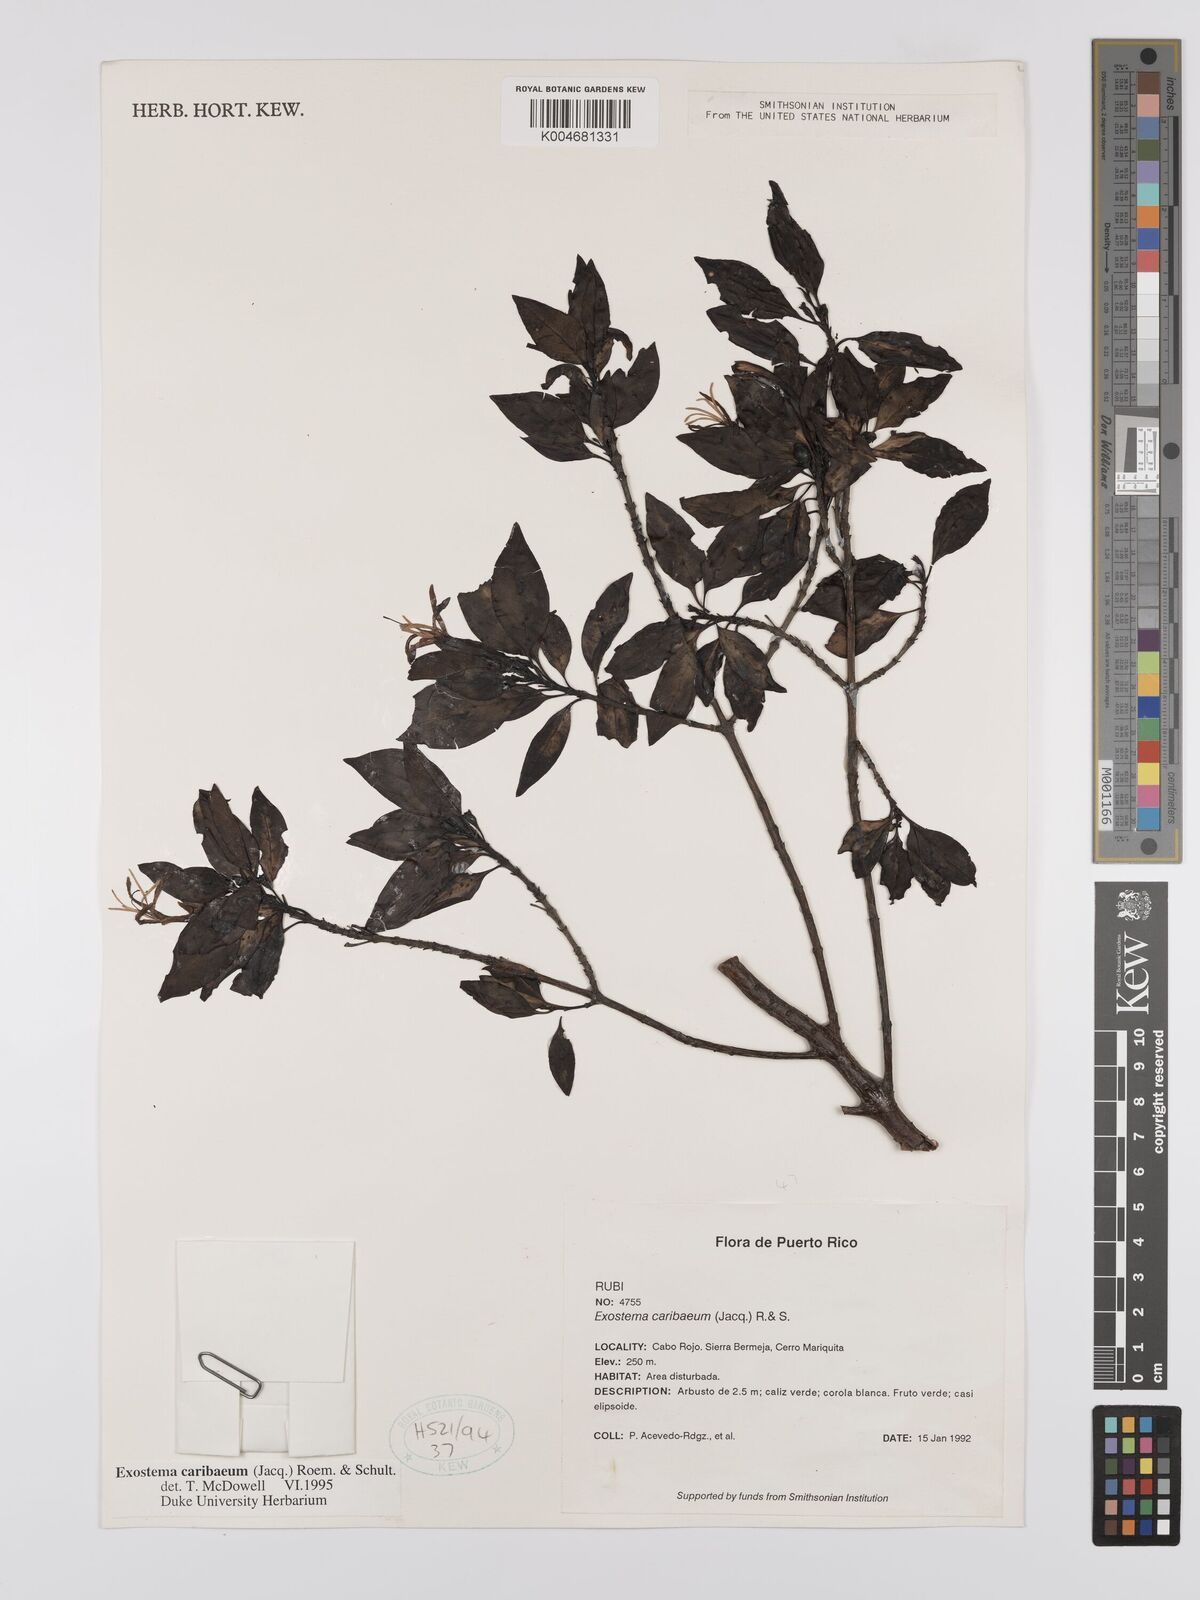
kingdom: Plantae
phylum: Tracheophyta
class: Magnoliopsida
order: Gentianales
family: Rubiaceae
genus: Exostema
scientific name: Exostema caribaeum
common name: Princewood
